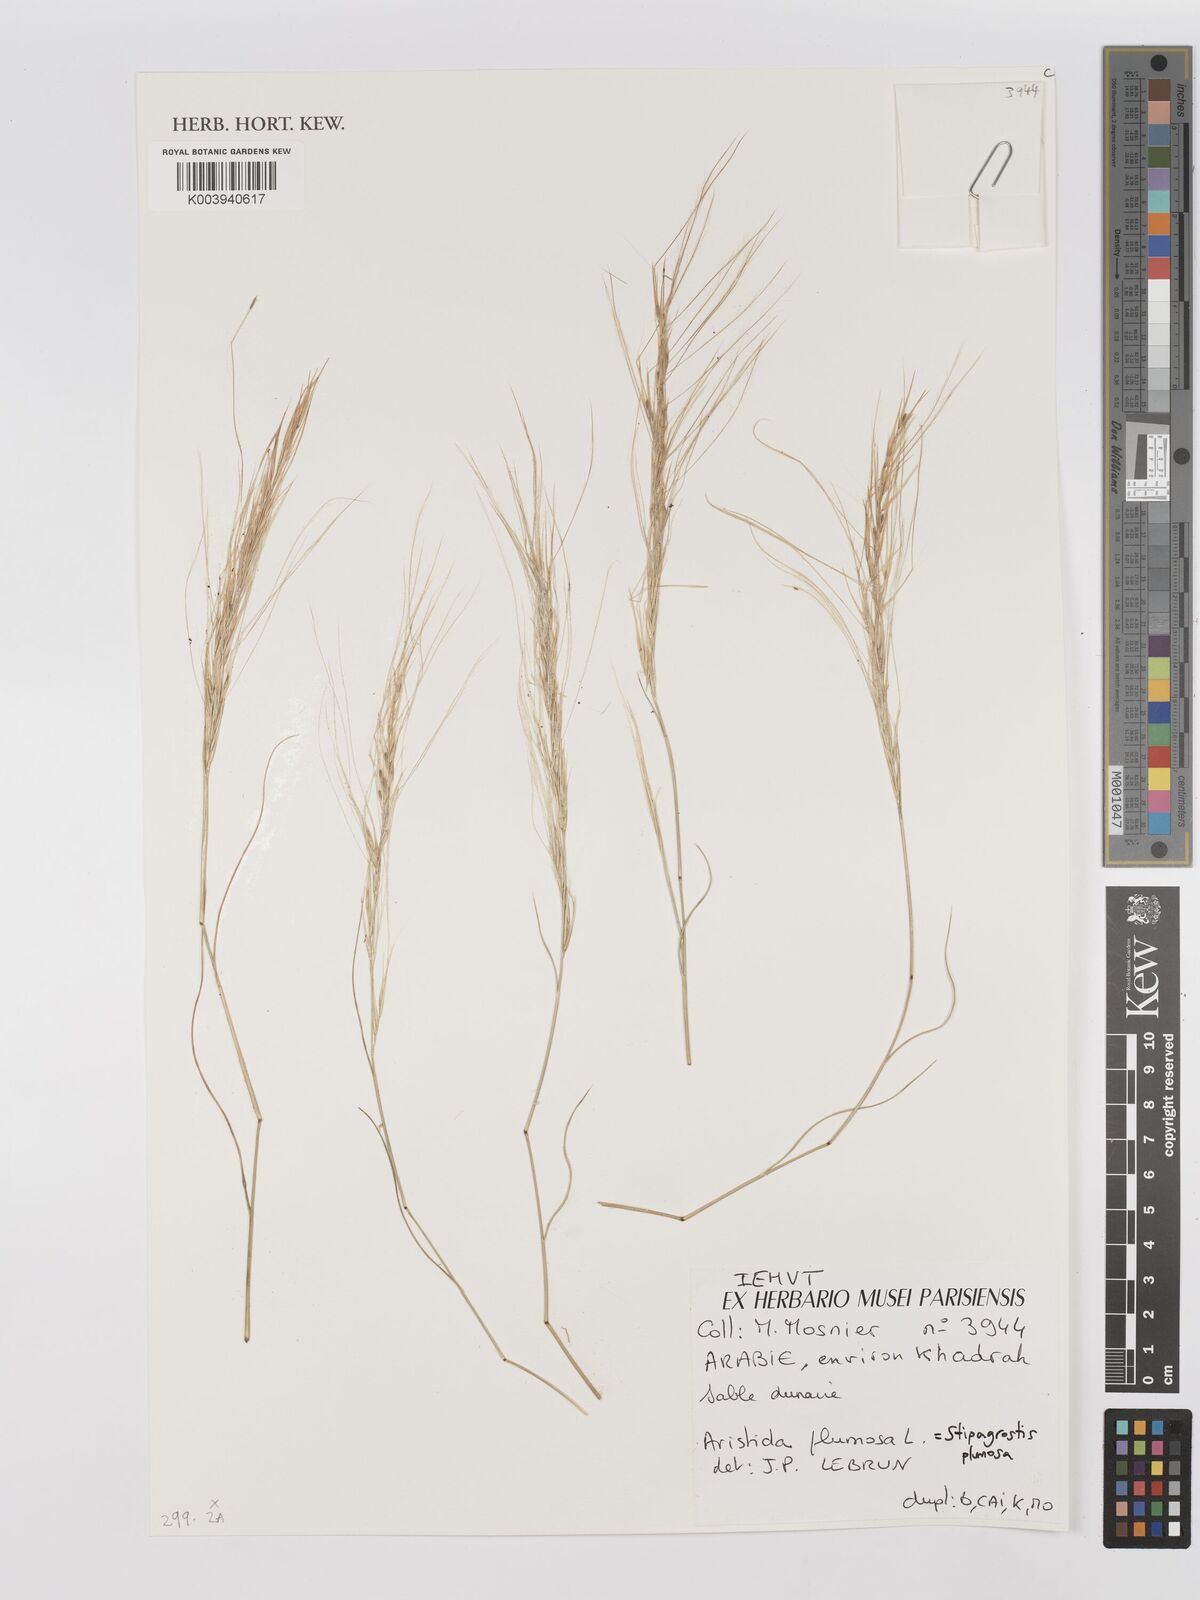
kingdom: Plantae
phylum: Tracheophyta
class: Liliopsida
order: Poales
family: Poaceae
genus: Stipagrostis
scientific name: Stipagrostis plumosa
